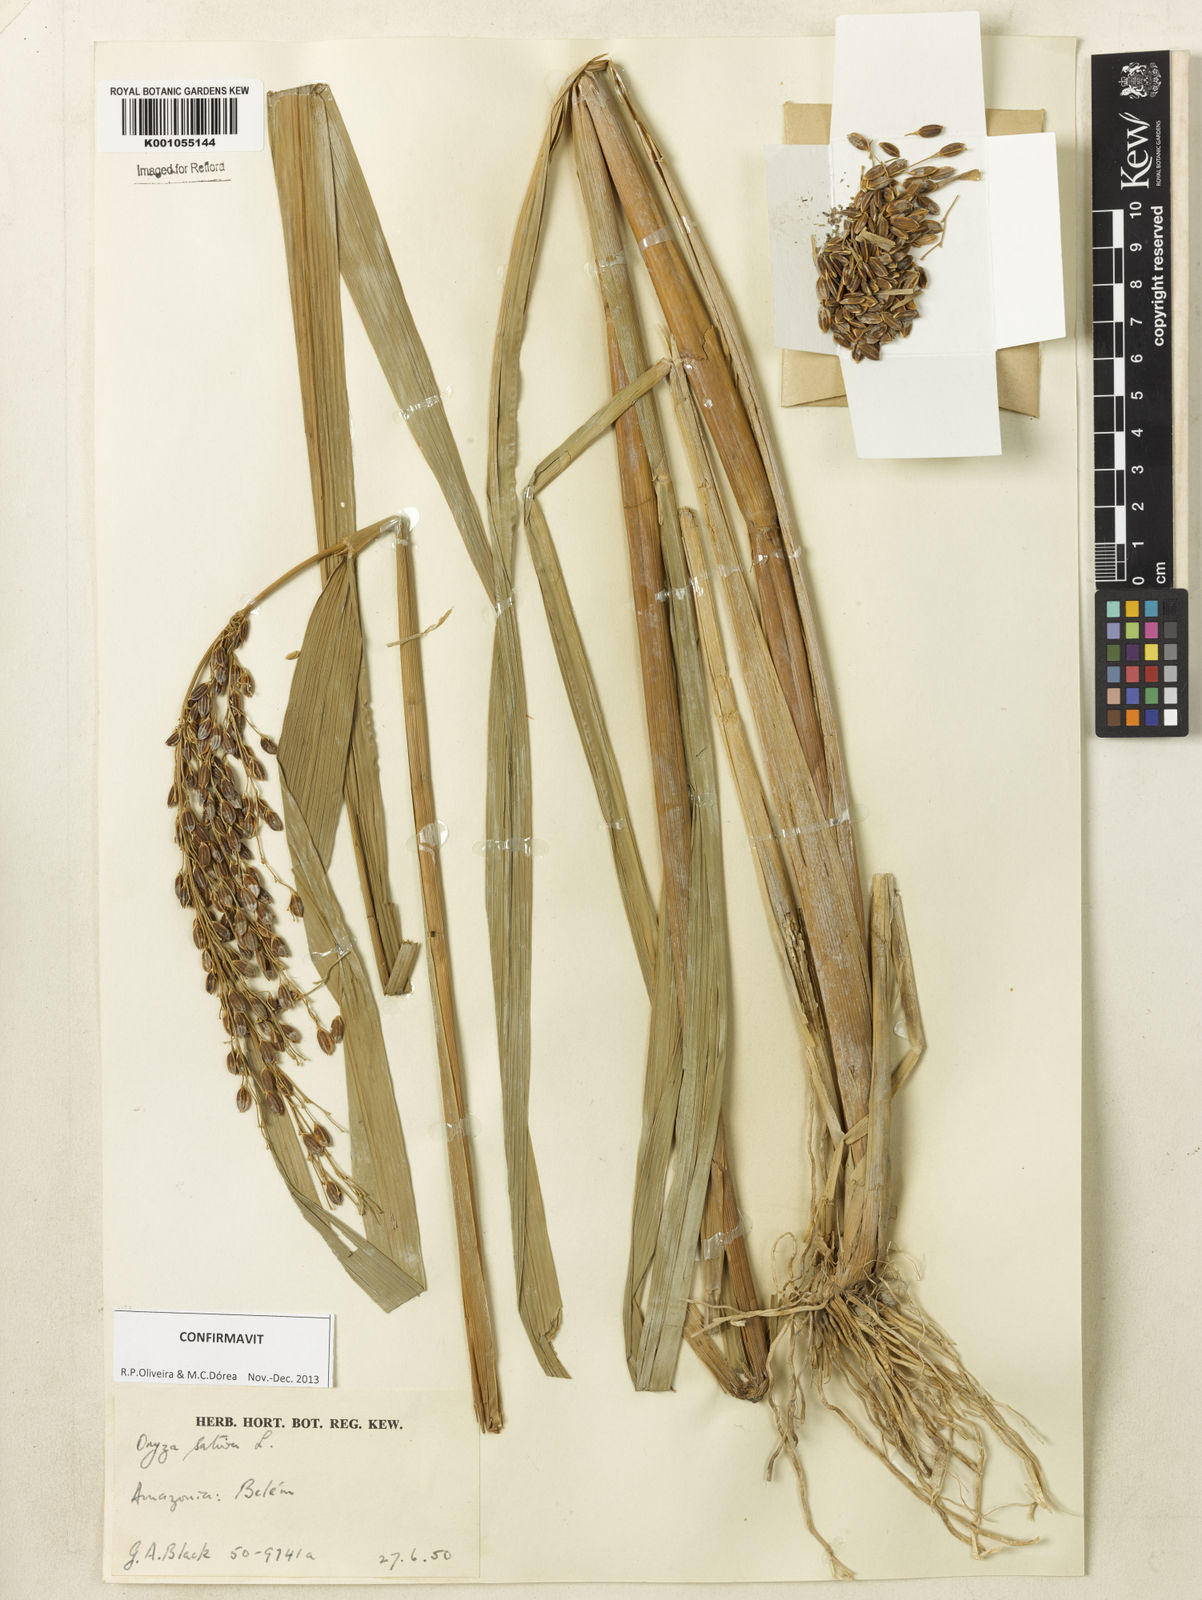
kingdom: Plantae
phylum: Tracheophyta
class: Liliopsida
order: Poales
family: Poaceae
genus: Oryza
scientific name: Oryza sativa
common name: Rice
